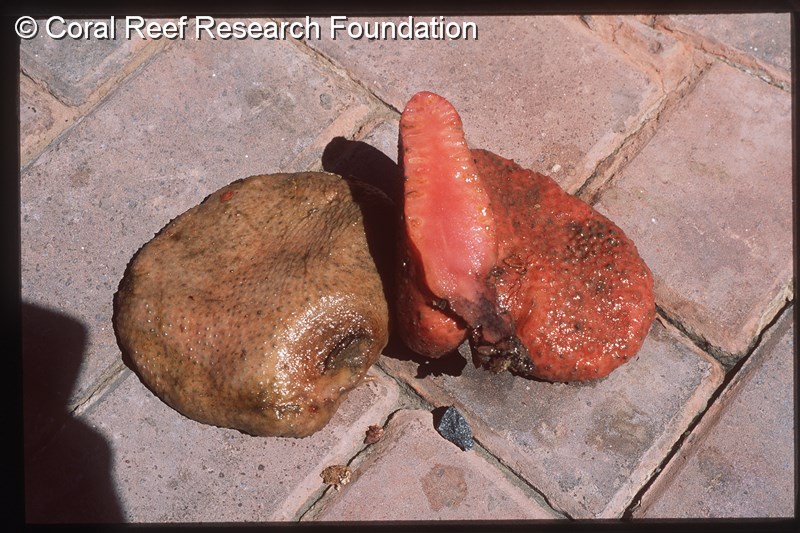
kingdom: Animalia
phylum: Chordata
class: Ascidiacea
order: Stolidobranchia
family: Styelidae
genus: Gynandrocarpa
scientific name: Gynandrocarpa placenta
